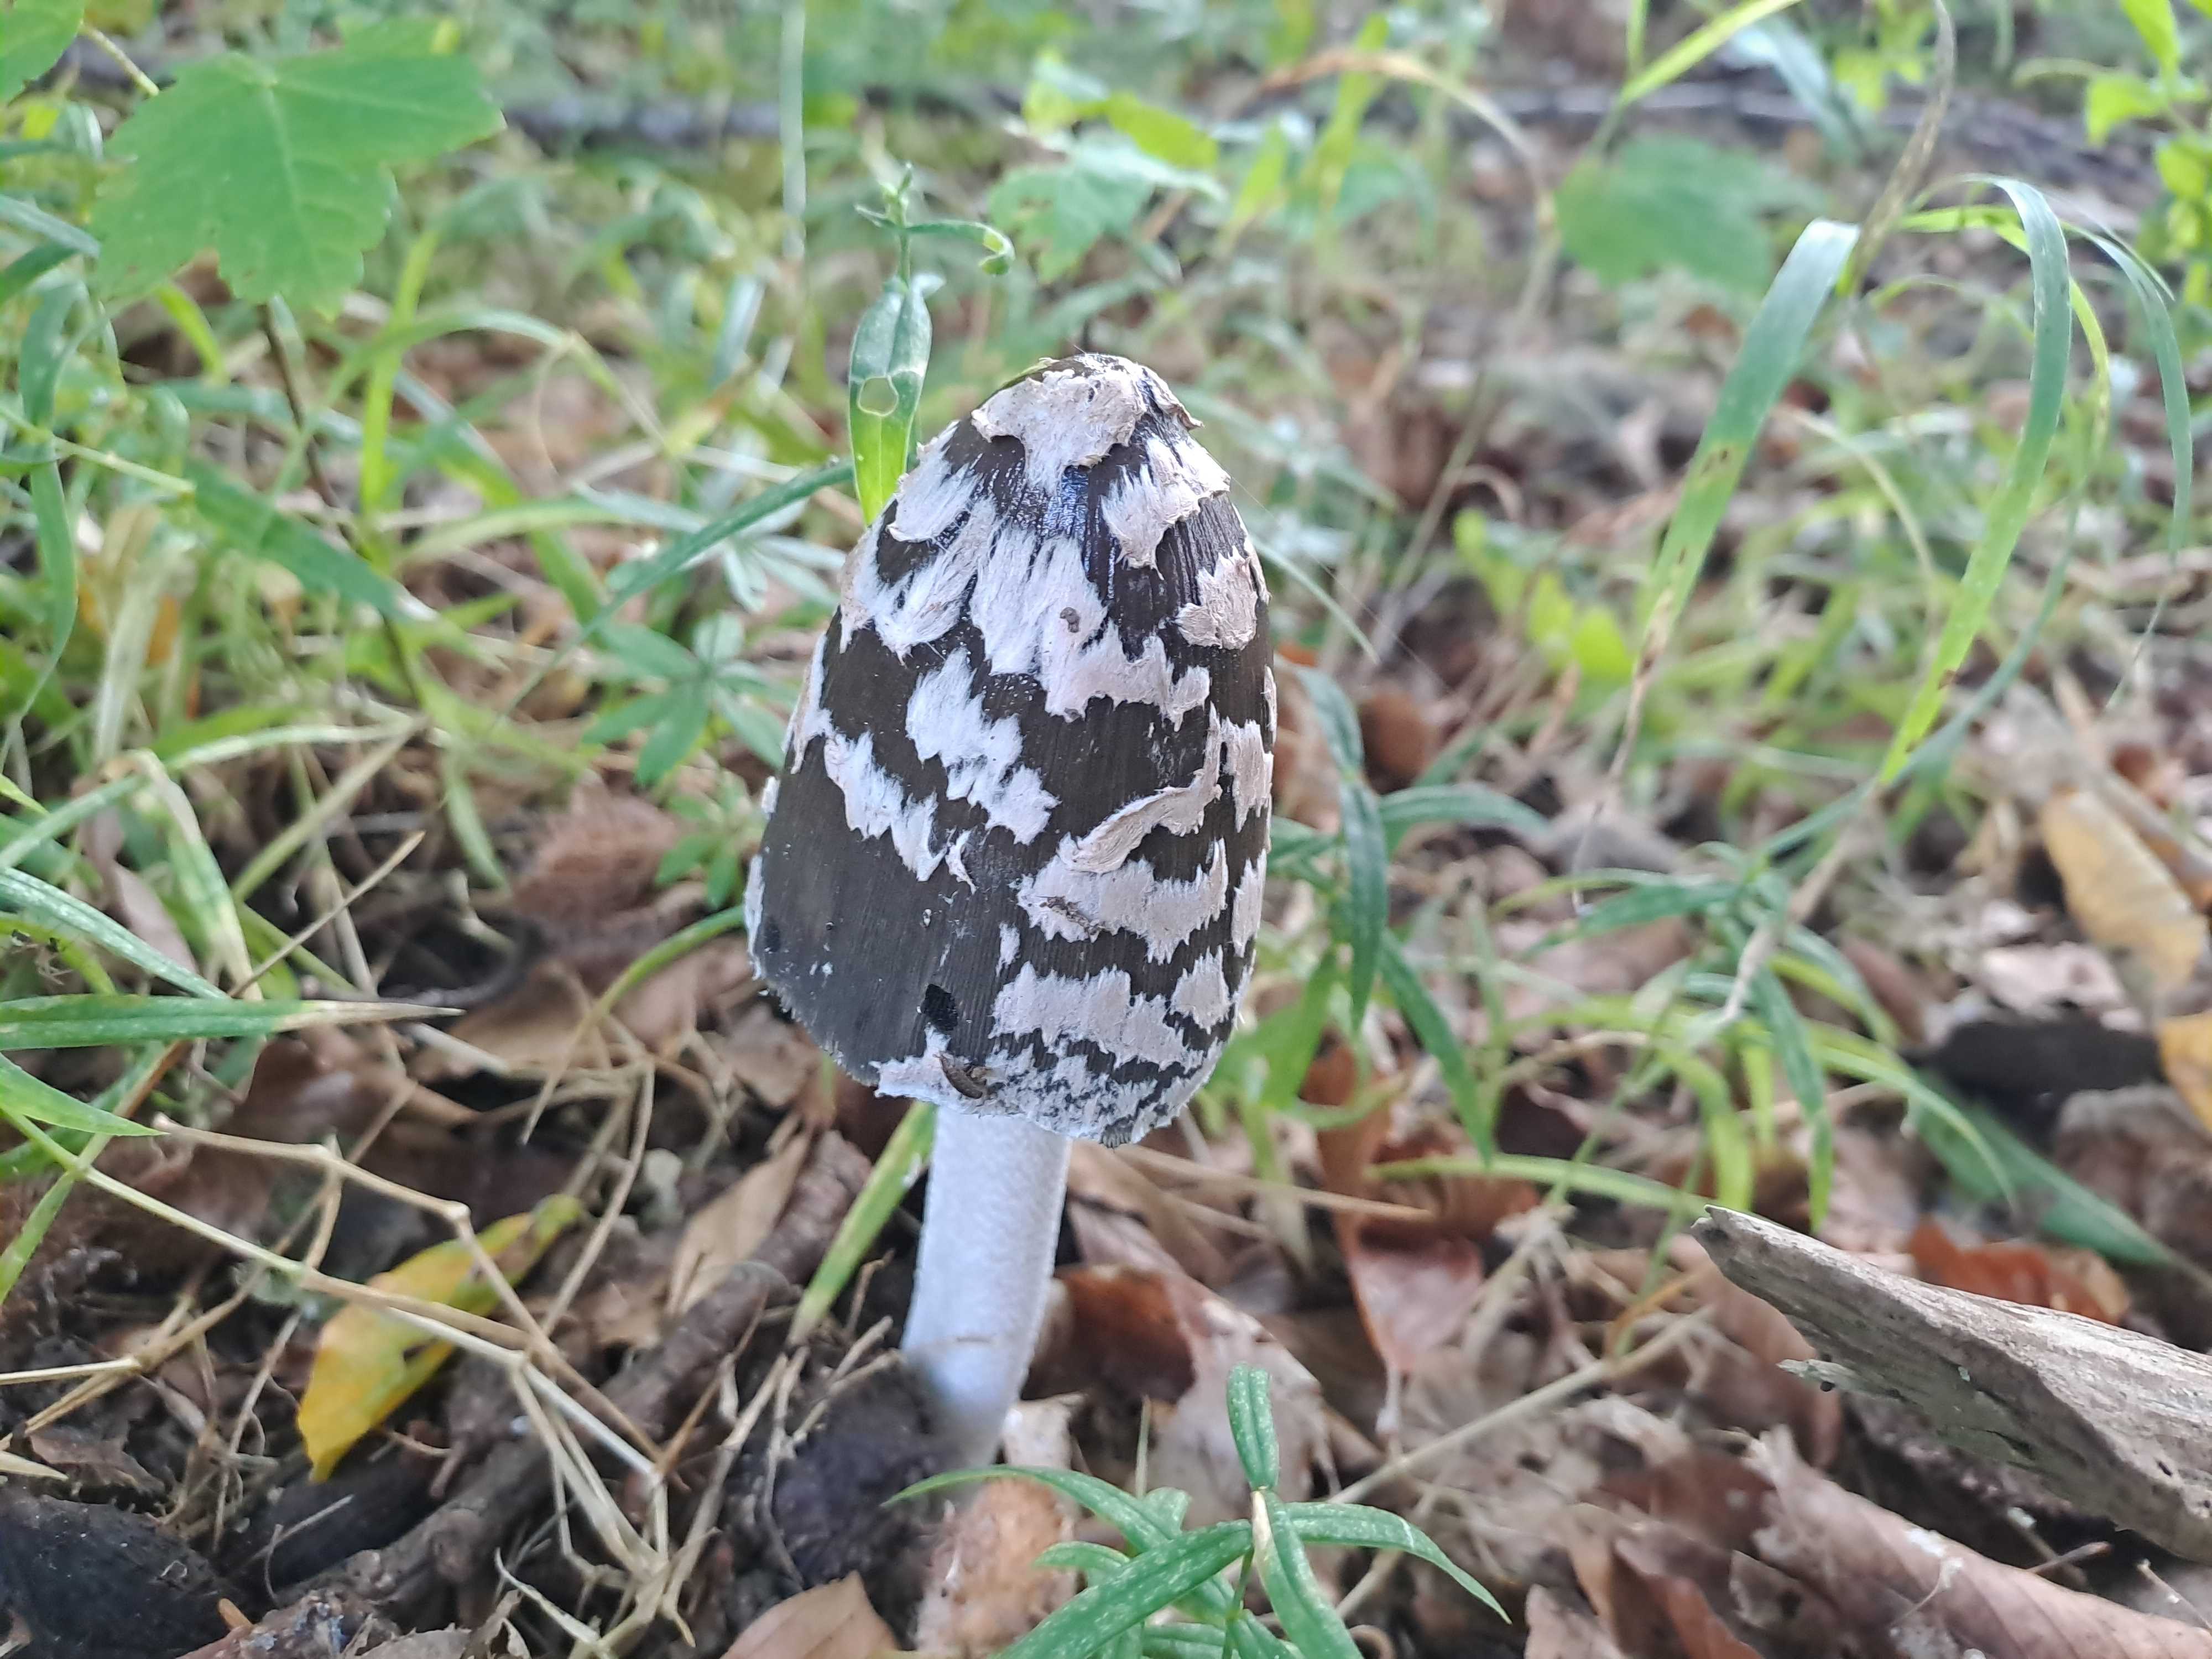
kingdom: Fungi
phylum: Basidiomycota
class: Agaricomycetes
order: Agaricales
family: Psathyrellaceae
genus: Coprinopsis
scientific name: Coprinopsis picacea
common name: skade-blækhat
